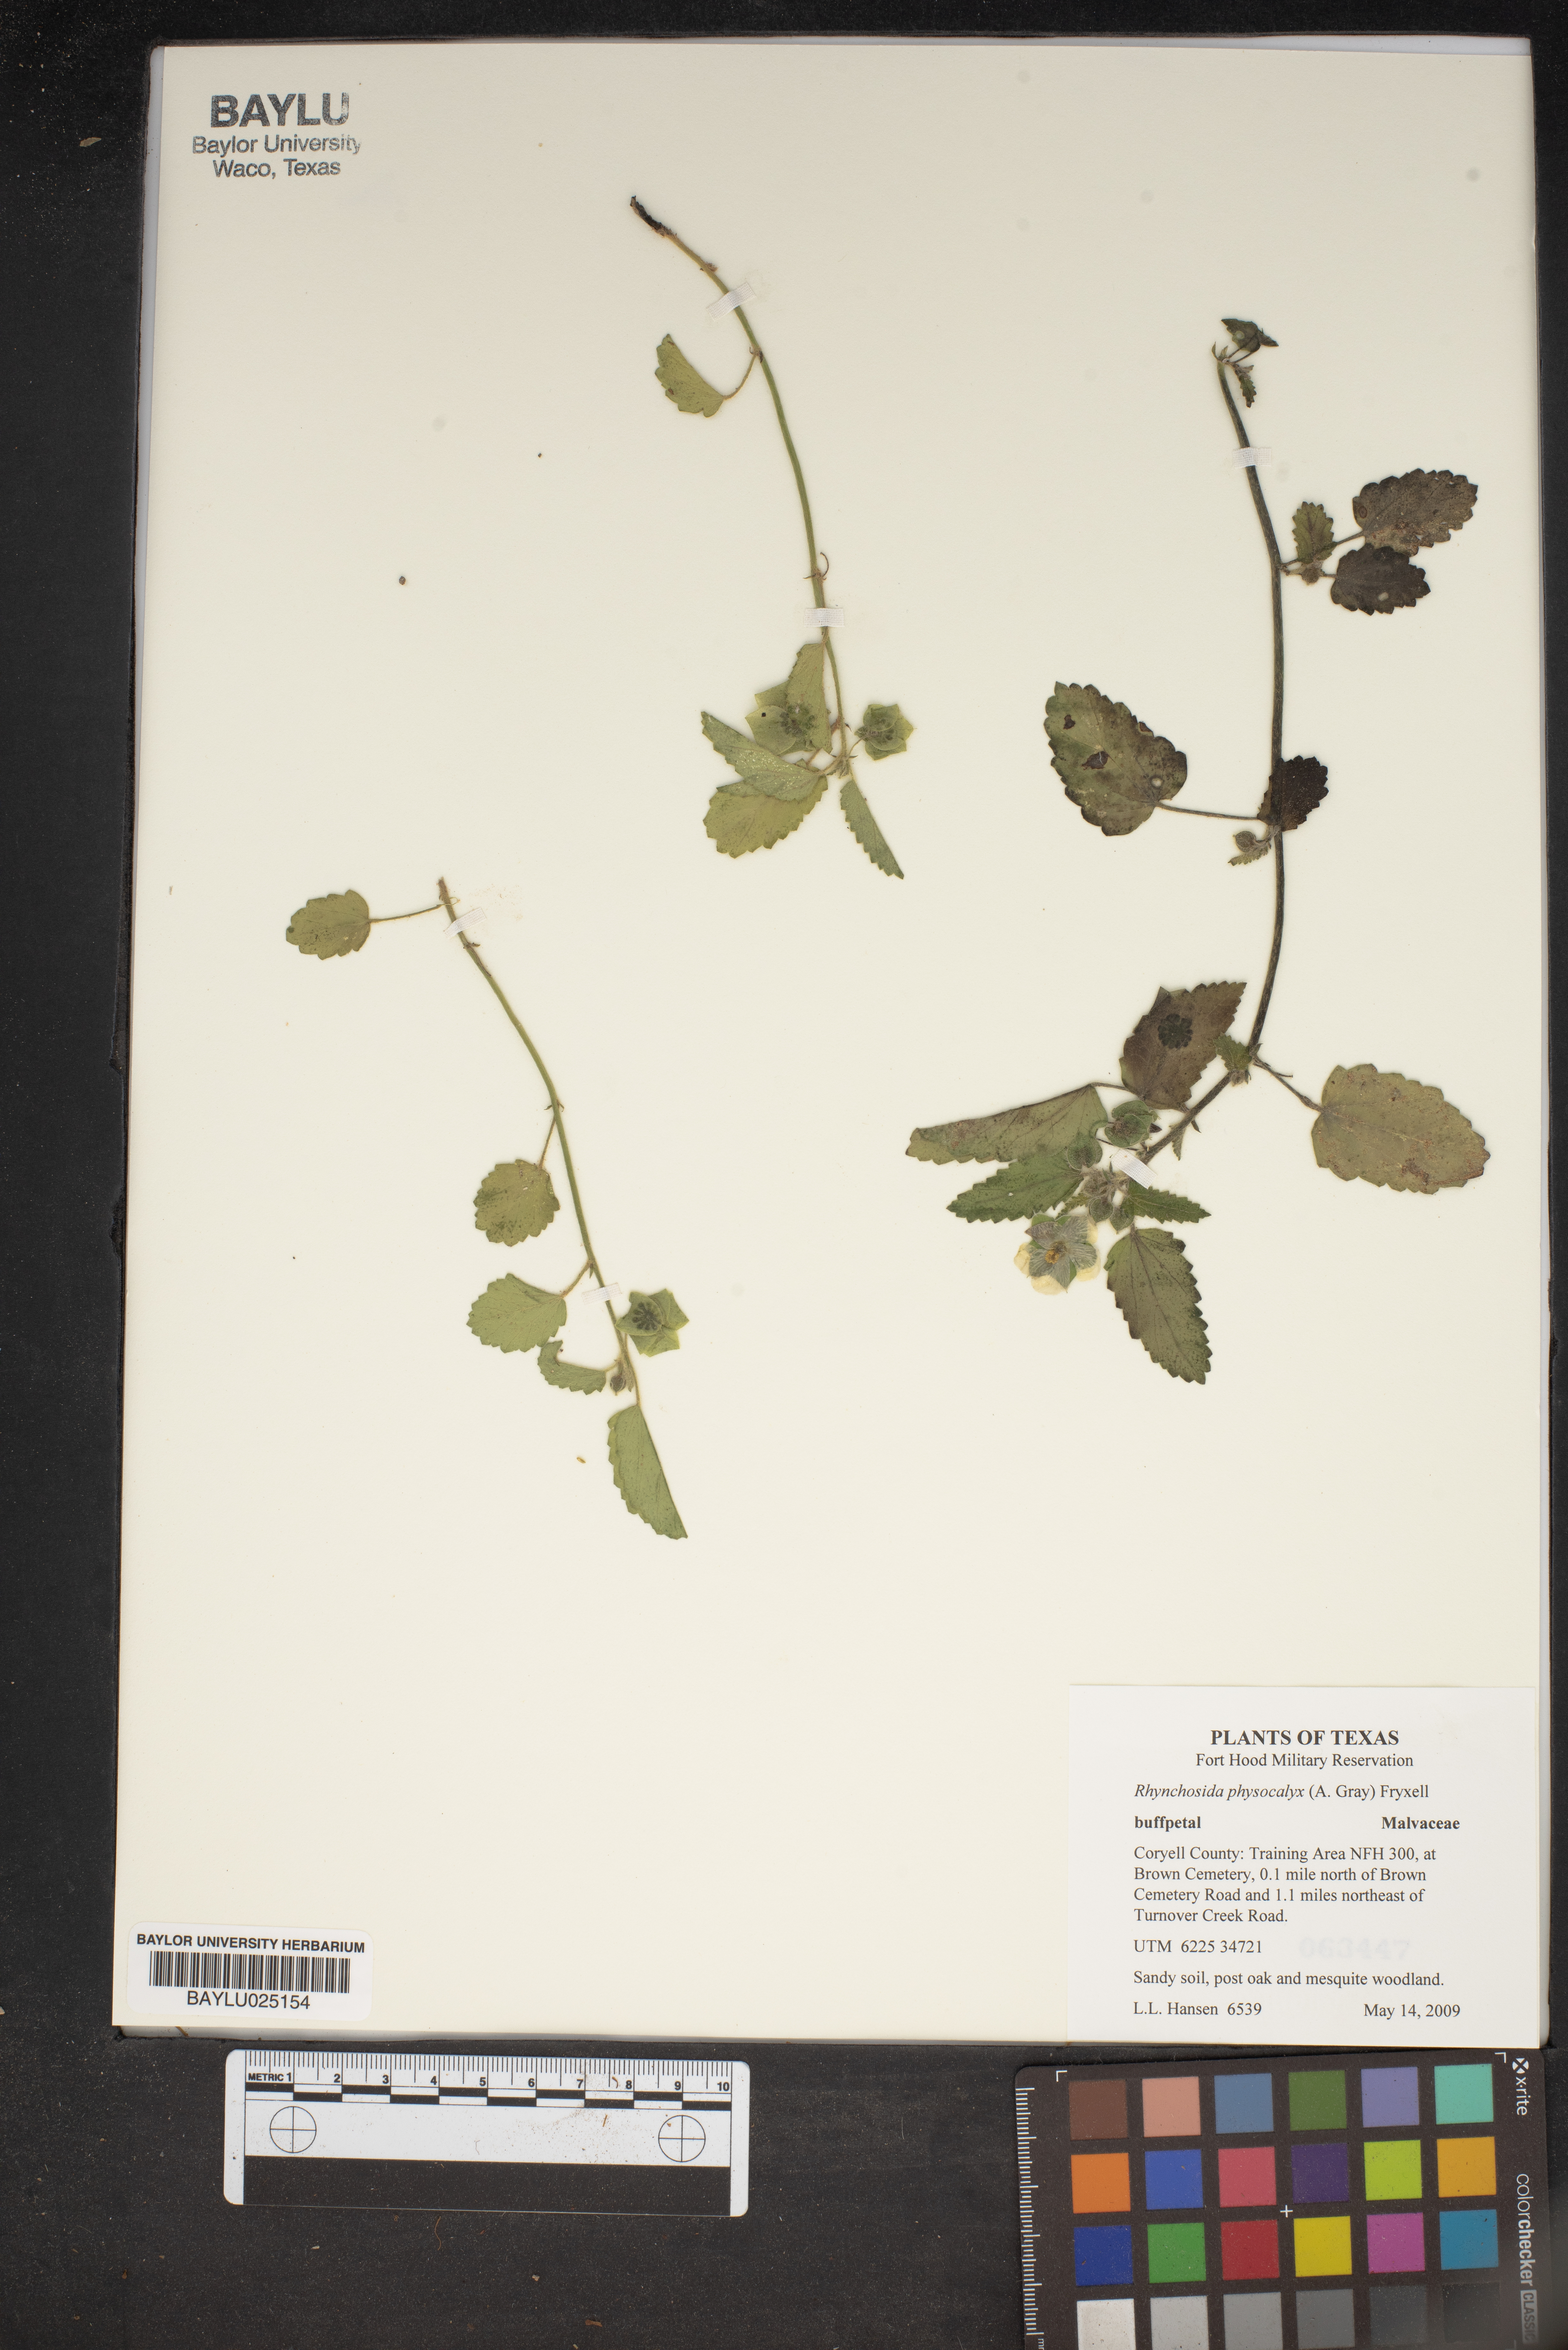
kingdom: Plantae
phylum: Tracheophyta
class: Magnoliopsida
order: Malvales
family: Malvaceae
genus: Rhynchosida
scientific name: Rhynchosida physocalyx
